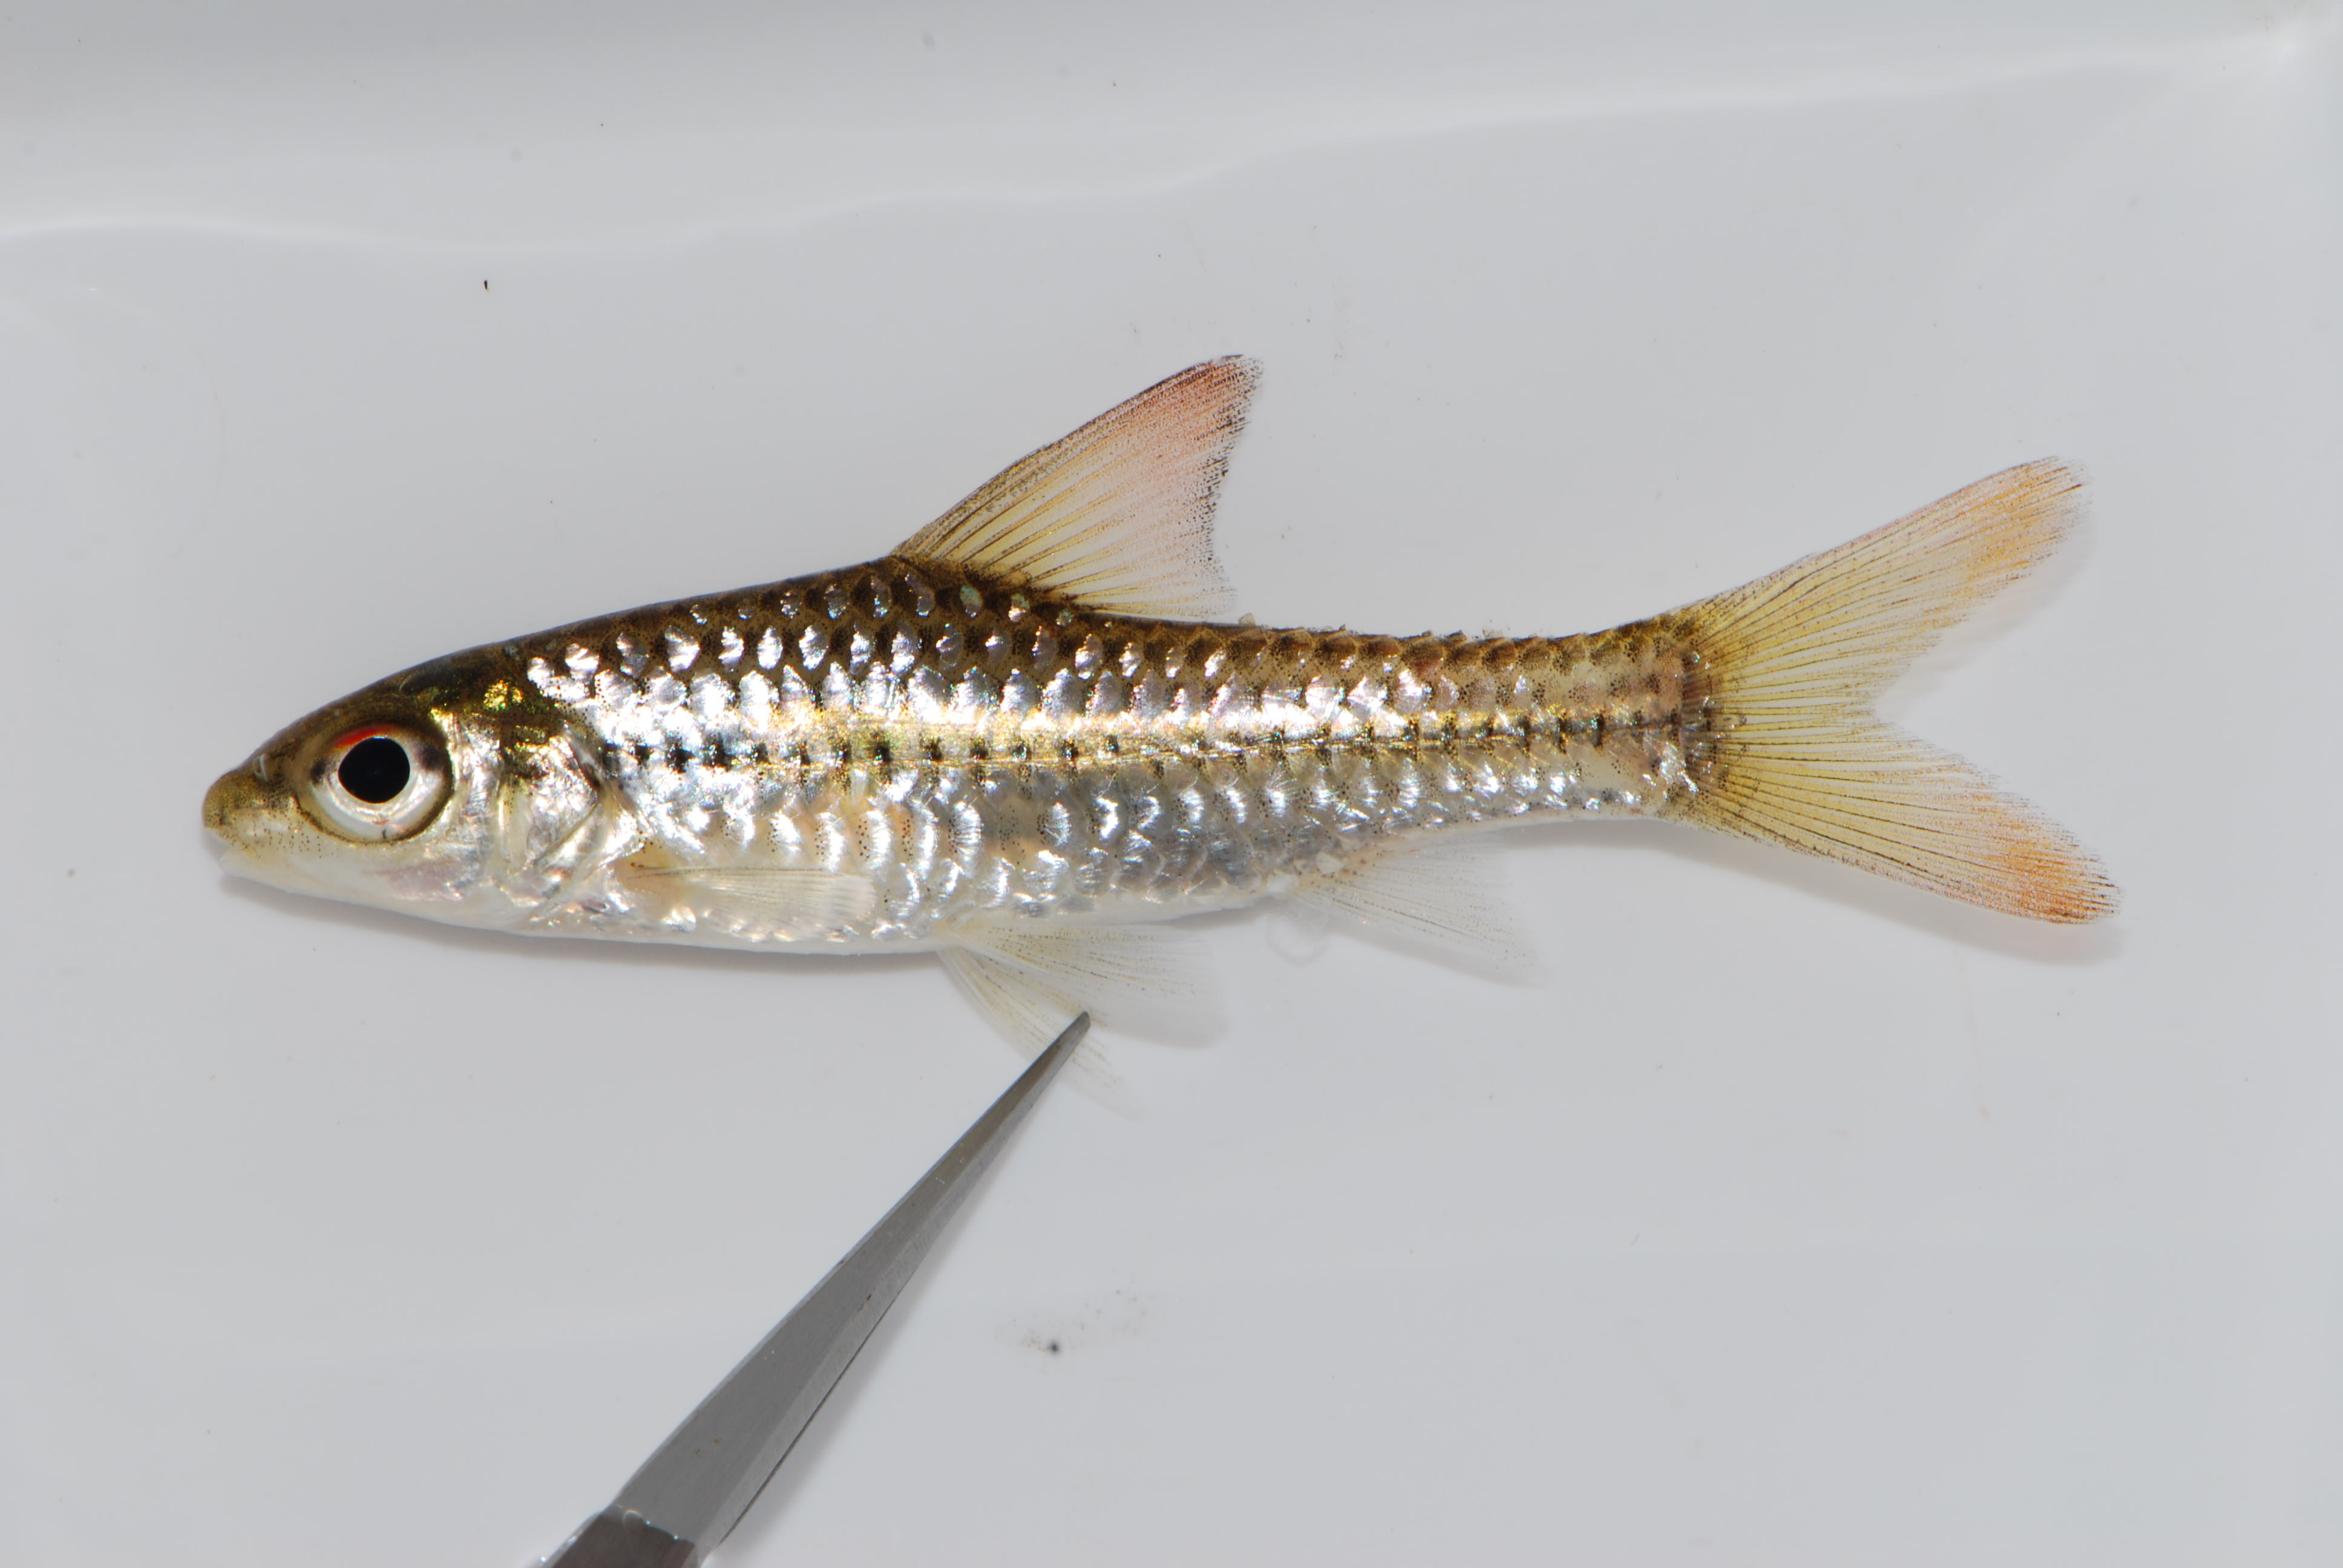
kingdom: Animalia
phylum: Chordata
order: Cypriniformes
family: Cyprinidae
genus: Enteromius
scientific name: Enteromius radiatus
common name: Beira barb
